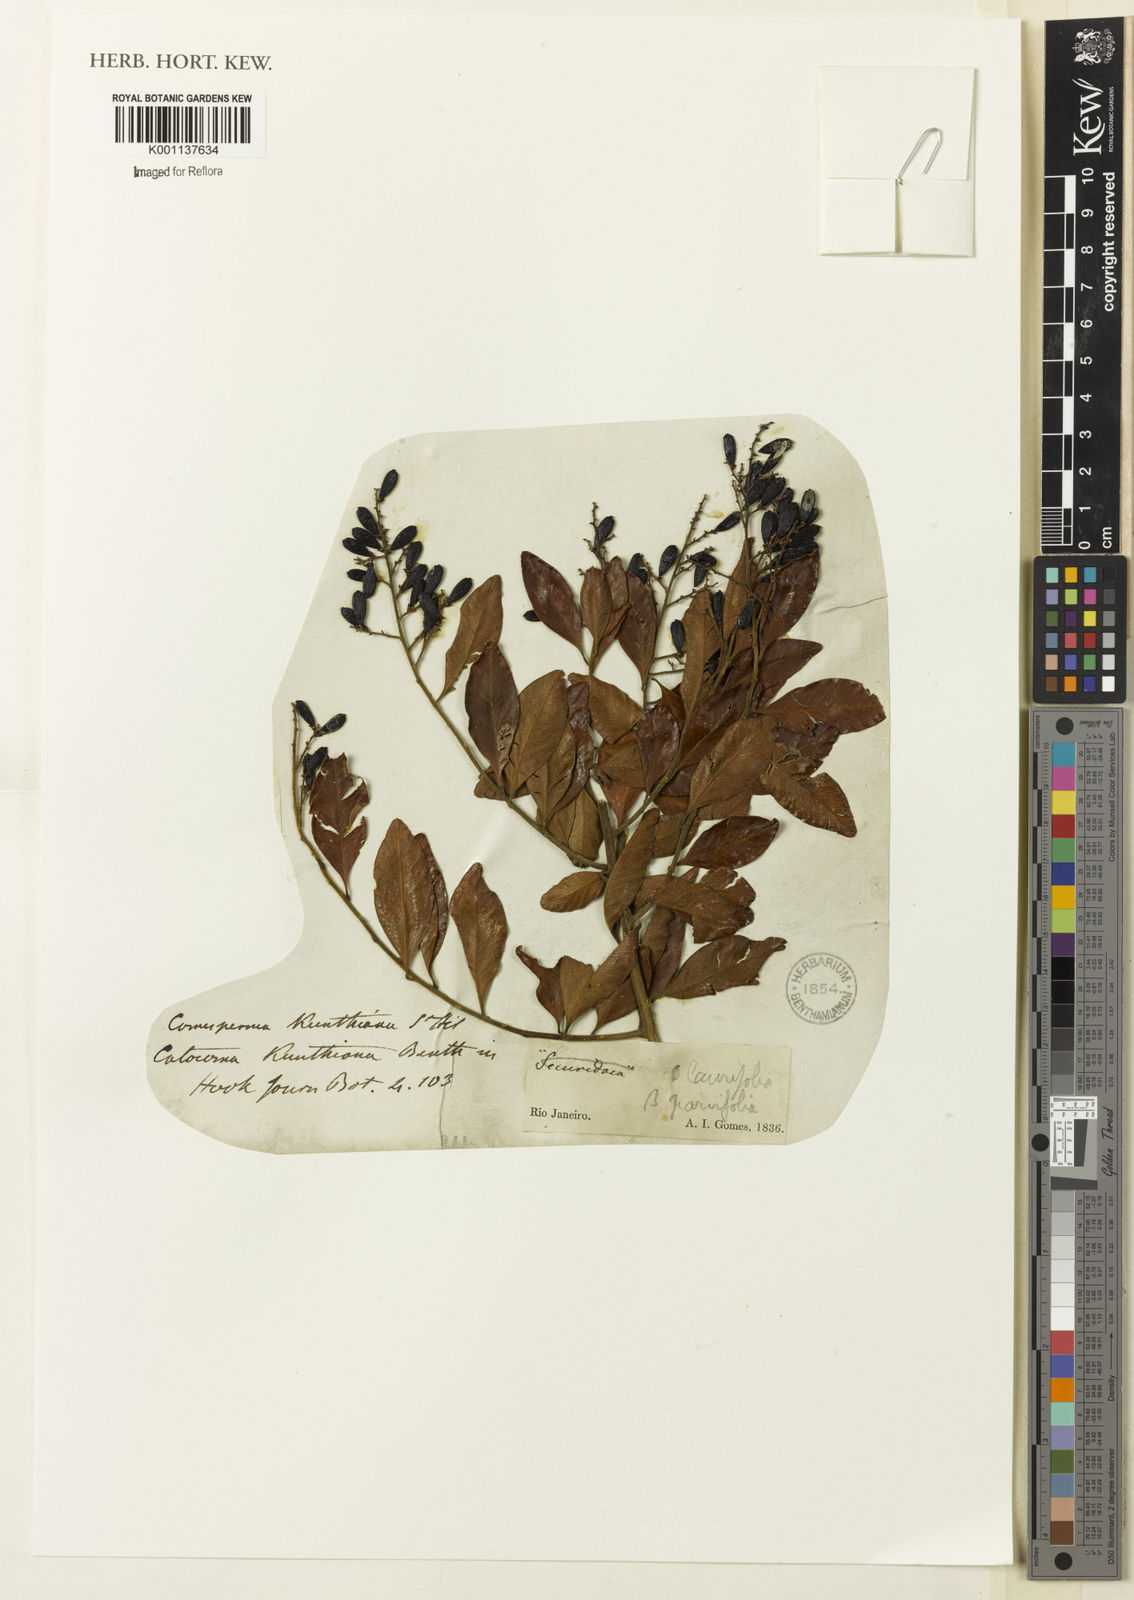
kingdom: Plantae
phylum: Tracheophyta
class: Magnoliopsida
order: Fabales
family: Polygalaceae
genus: Bredemeyera
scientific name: Bredemeyera hebeclada
